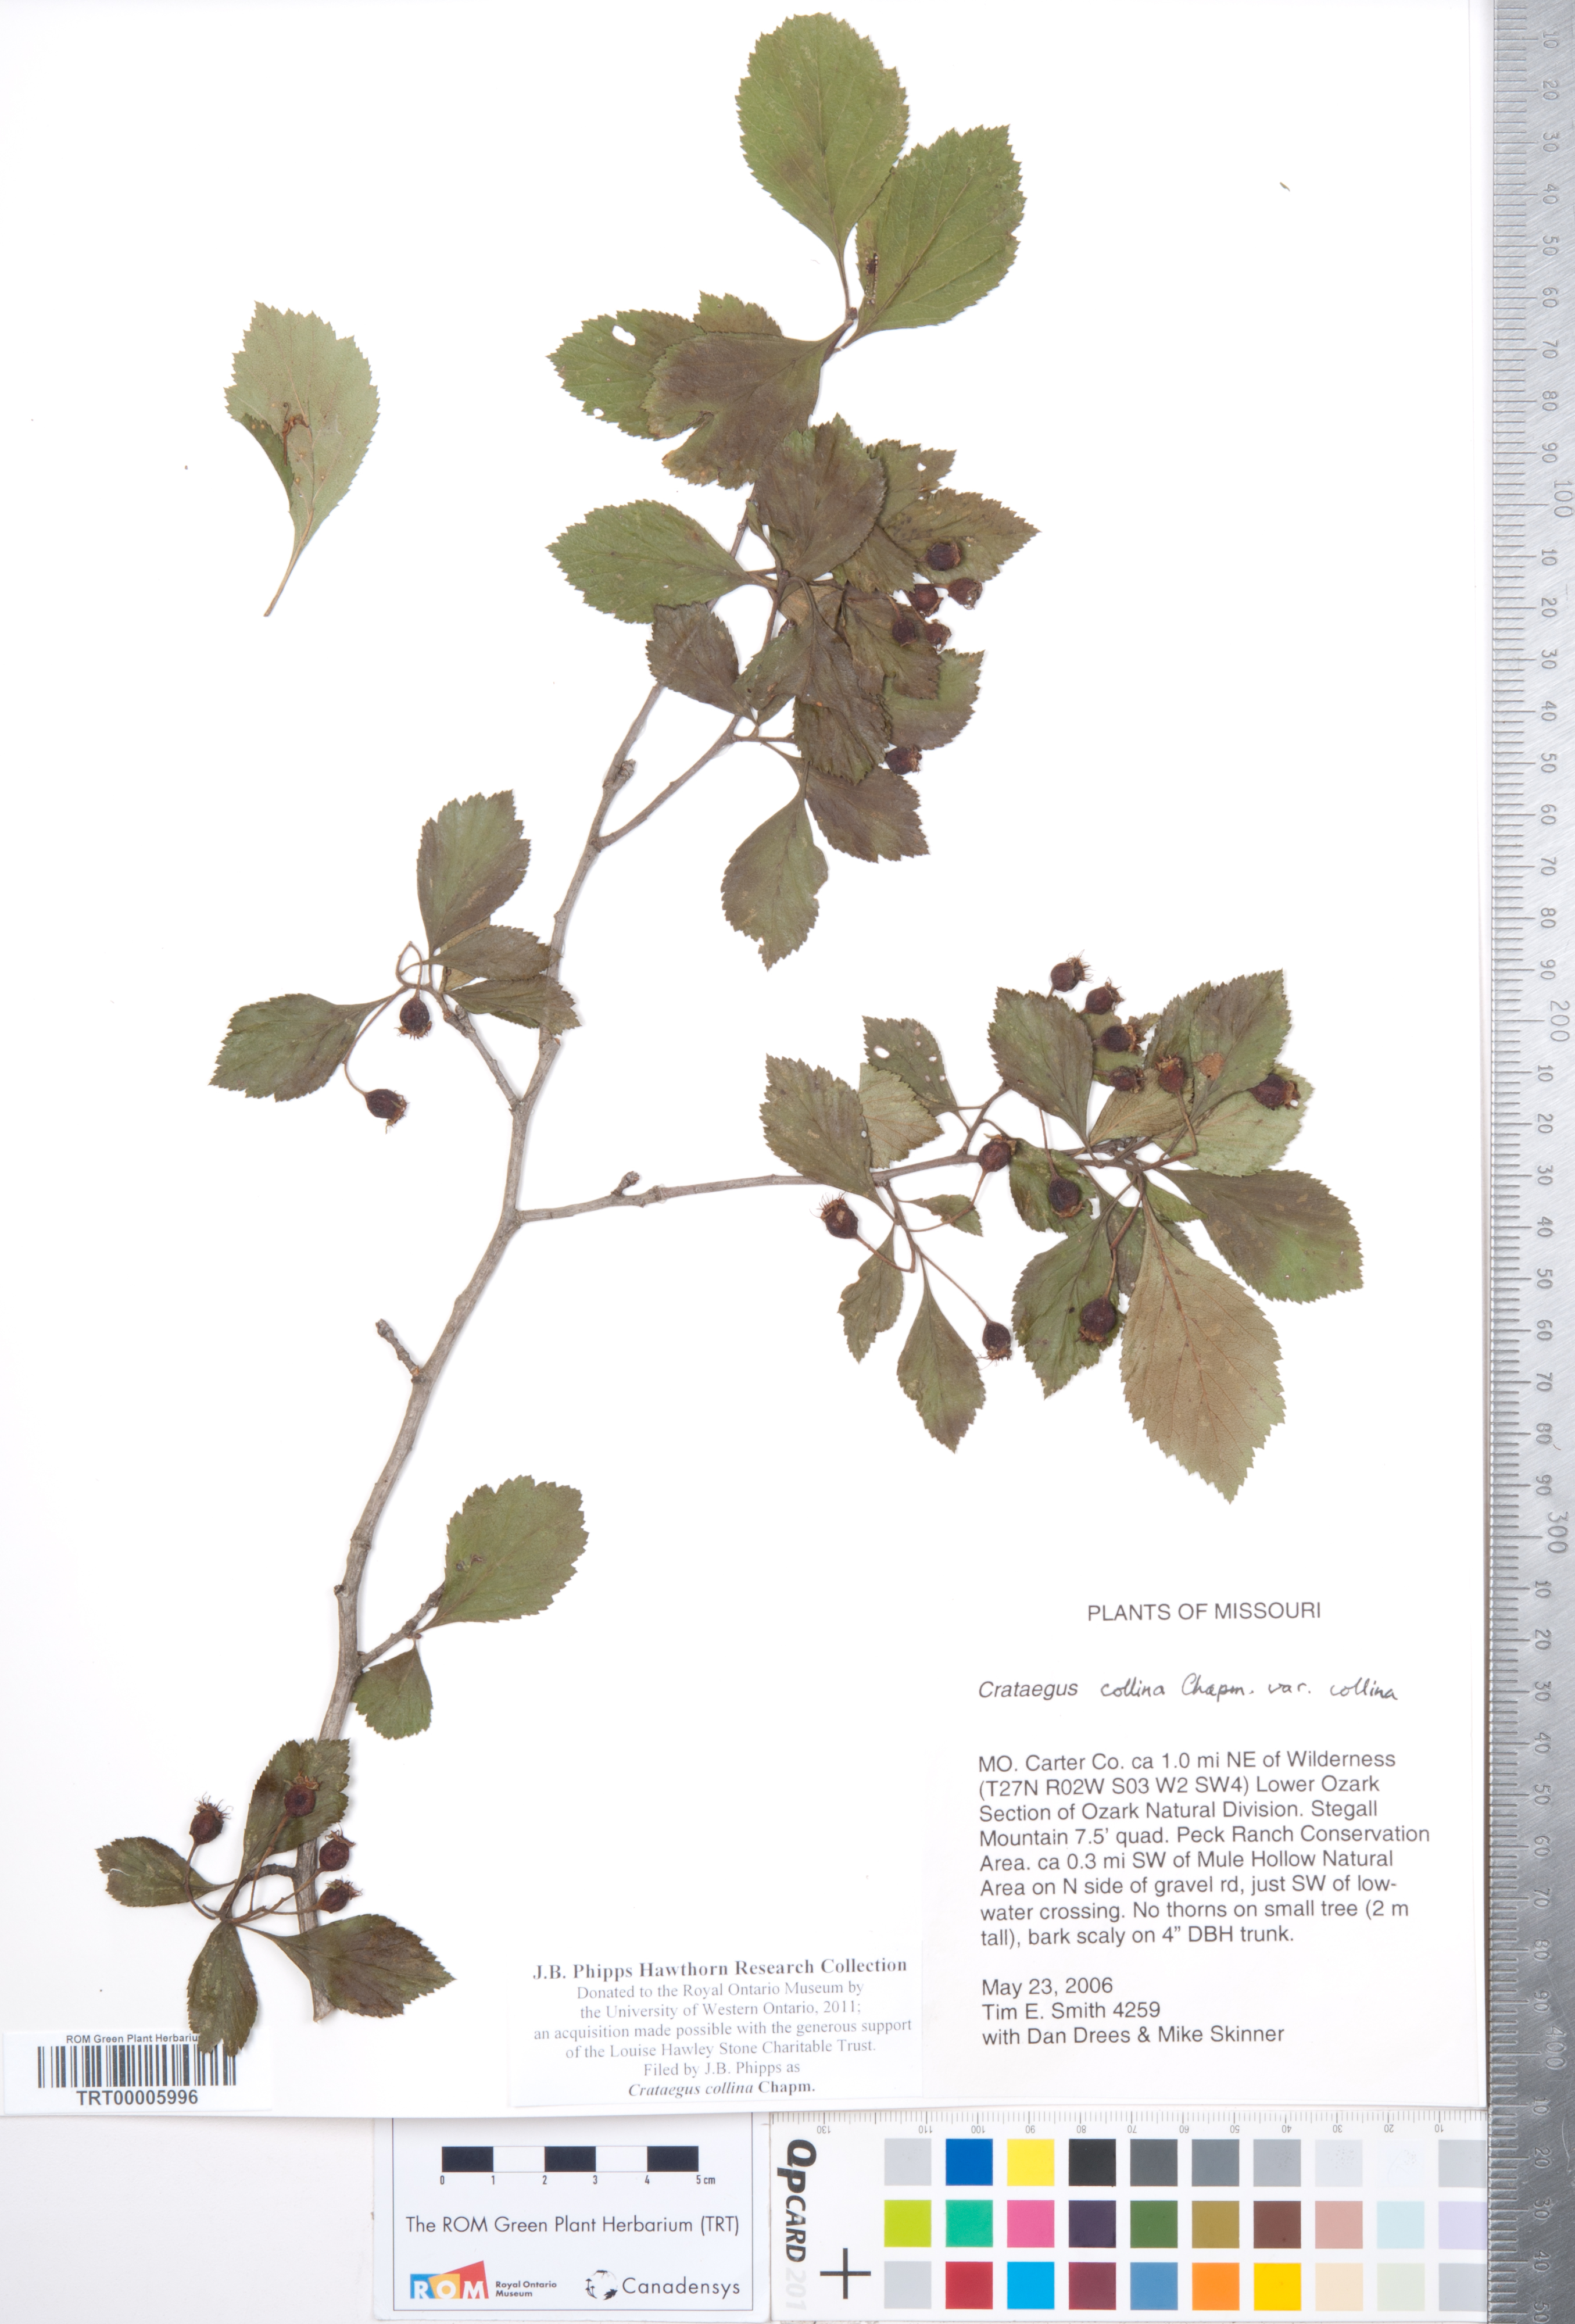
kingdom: Plantae
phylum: Tracheophyta
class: Magnoliopsida
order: Rosales
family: Rosaceae
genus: Crataegus
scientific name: Crataegus collina
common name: Hillside hawthorn
